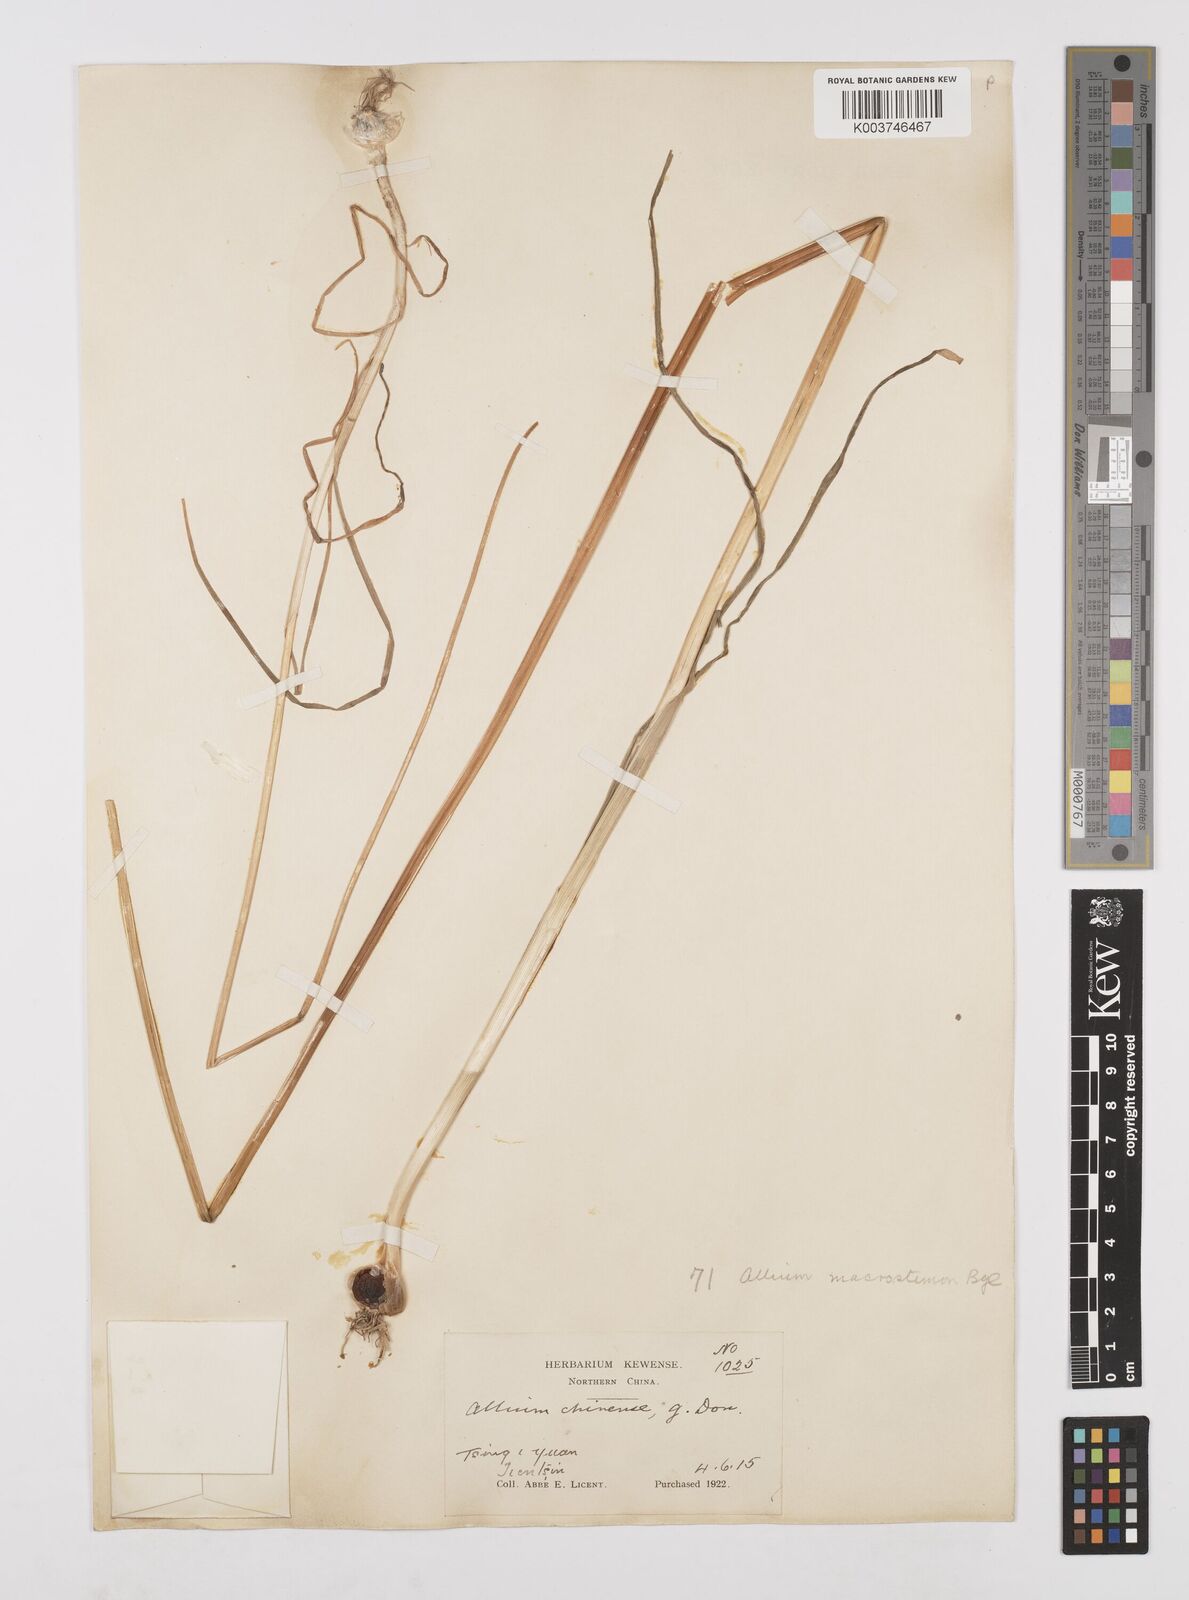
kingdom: Plantae
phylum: Tracheophyta
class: Liliopsida
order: Asparagales
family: Amaryllidaceae
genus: Allium
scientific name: Allium macrostemon
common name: Chinese garlic
